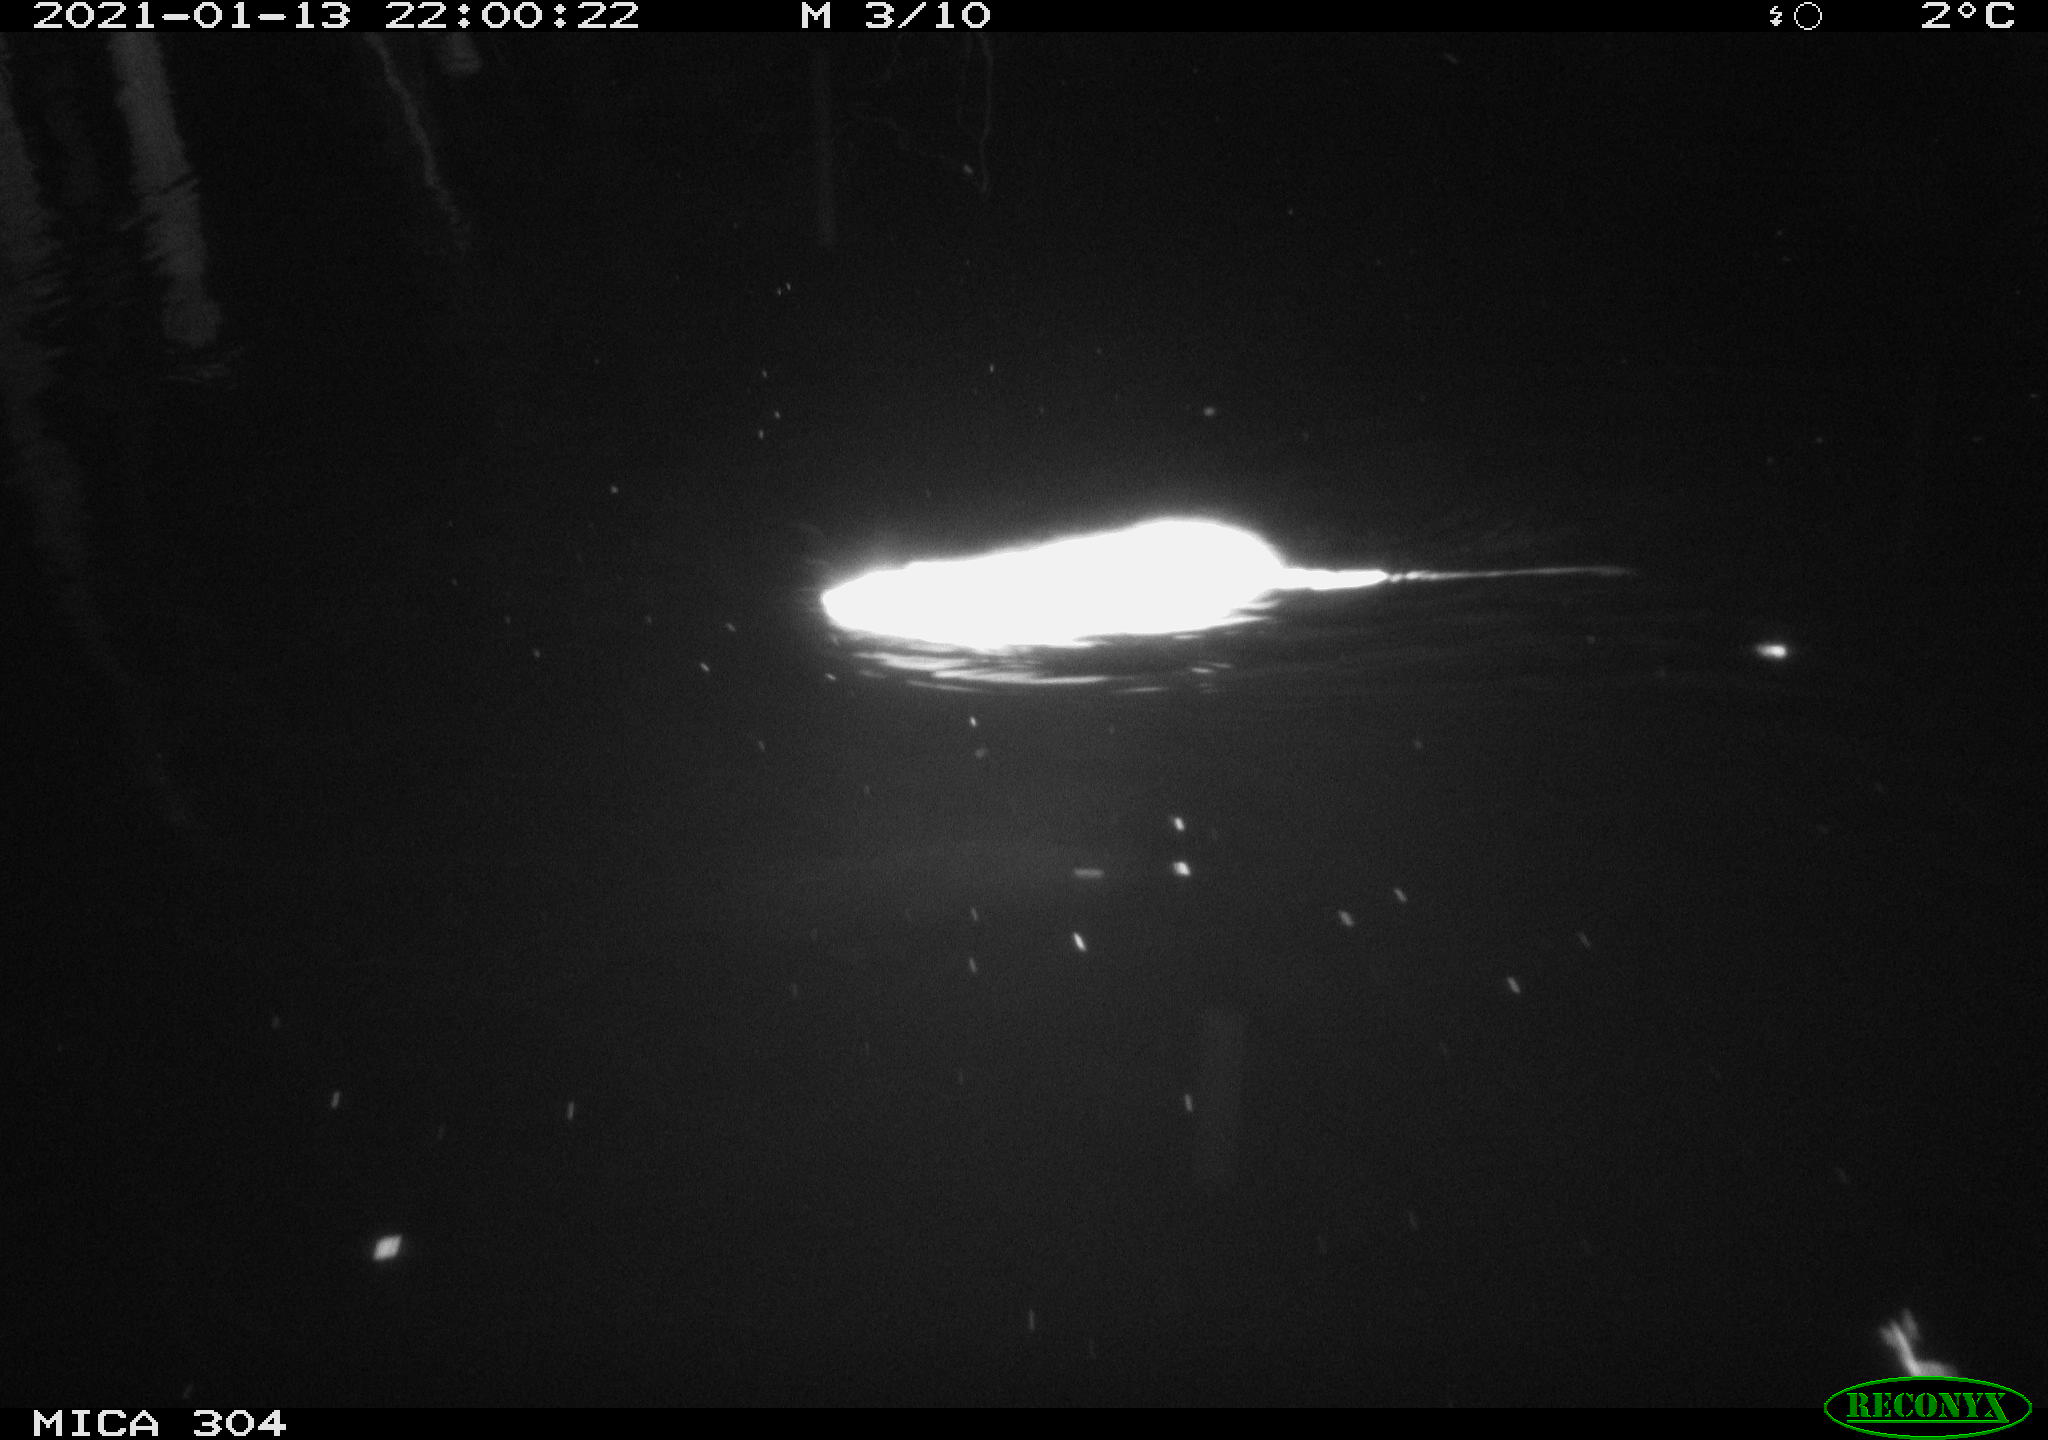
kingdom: Animalia
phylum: Chordata
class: Mammalia
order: Rodentia
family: Muridae
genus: Rattus
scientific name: Rattus norvegicus
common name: Brown rat
